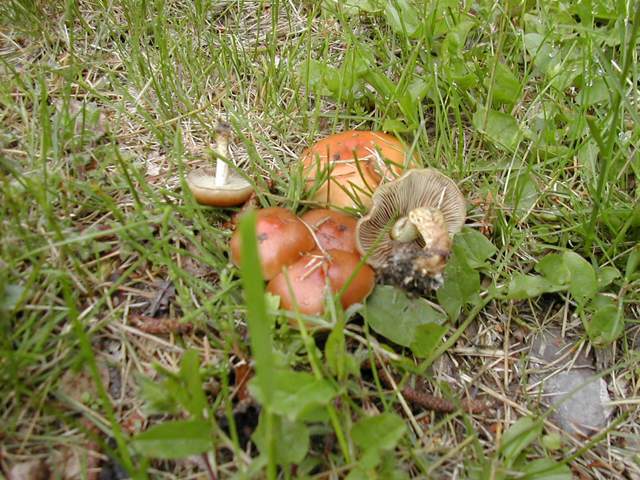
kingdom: Fungi
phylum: Basidiomycota
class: Agaricomycetes
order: Agaricales
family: Strophariaceae
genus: Pholiota
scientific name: Pholiota carbonaria
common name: kul-skælhat
